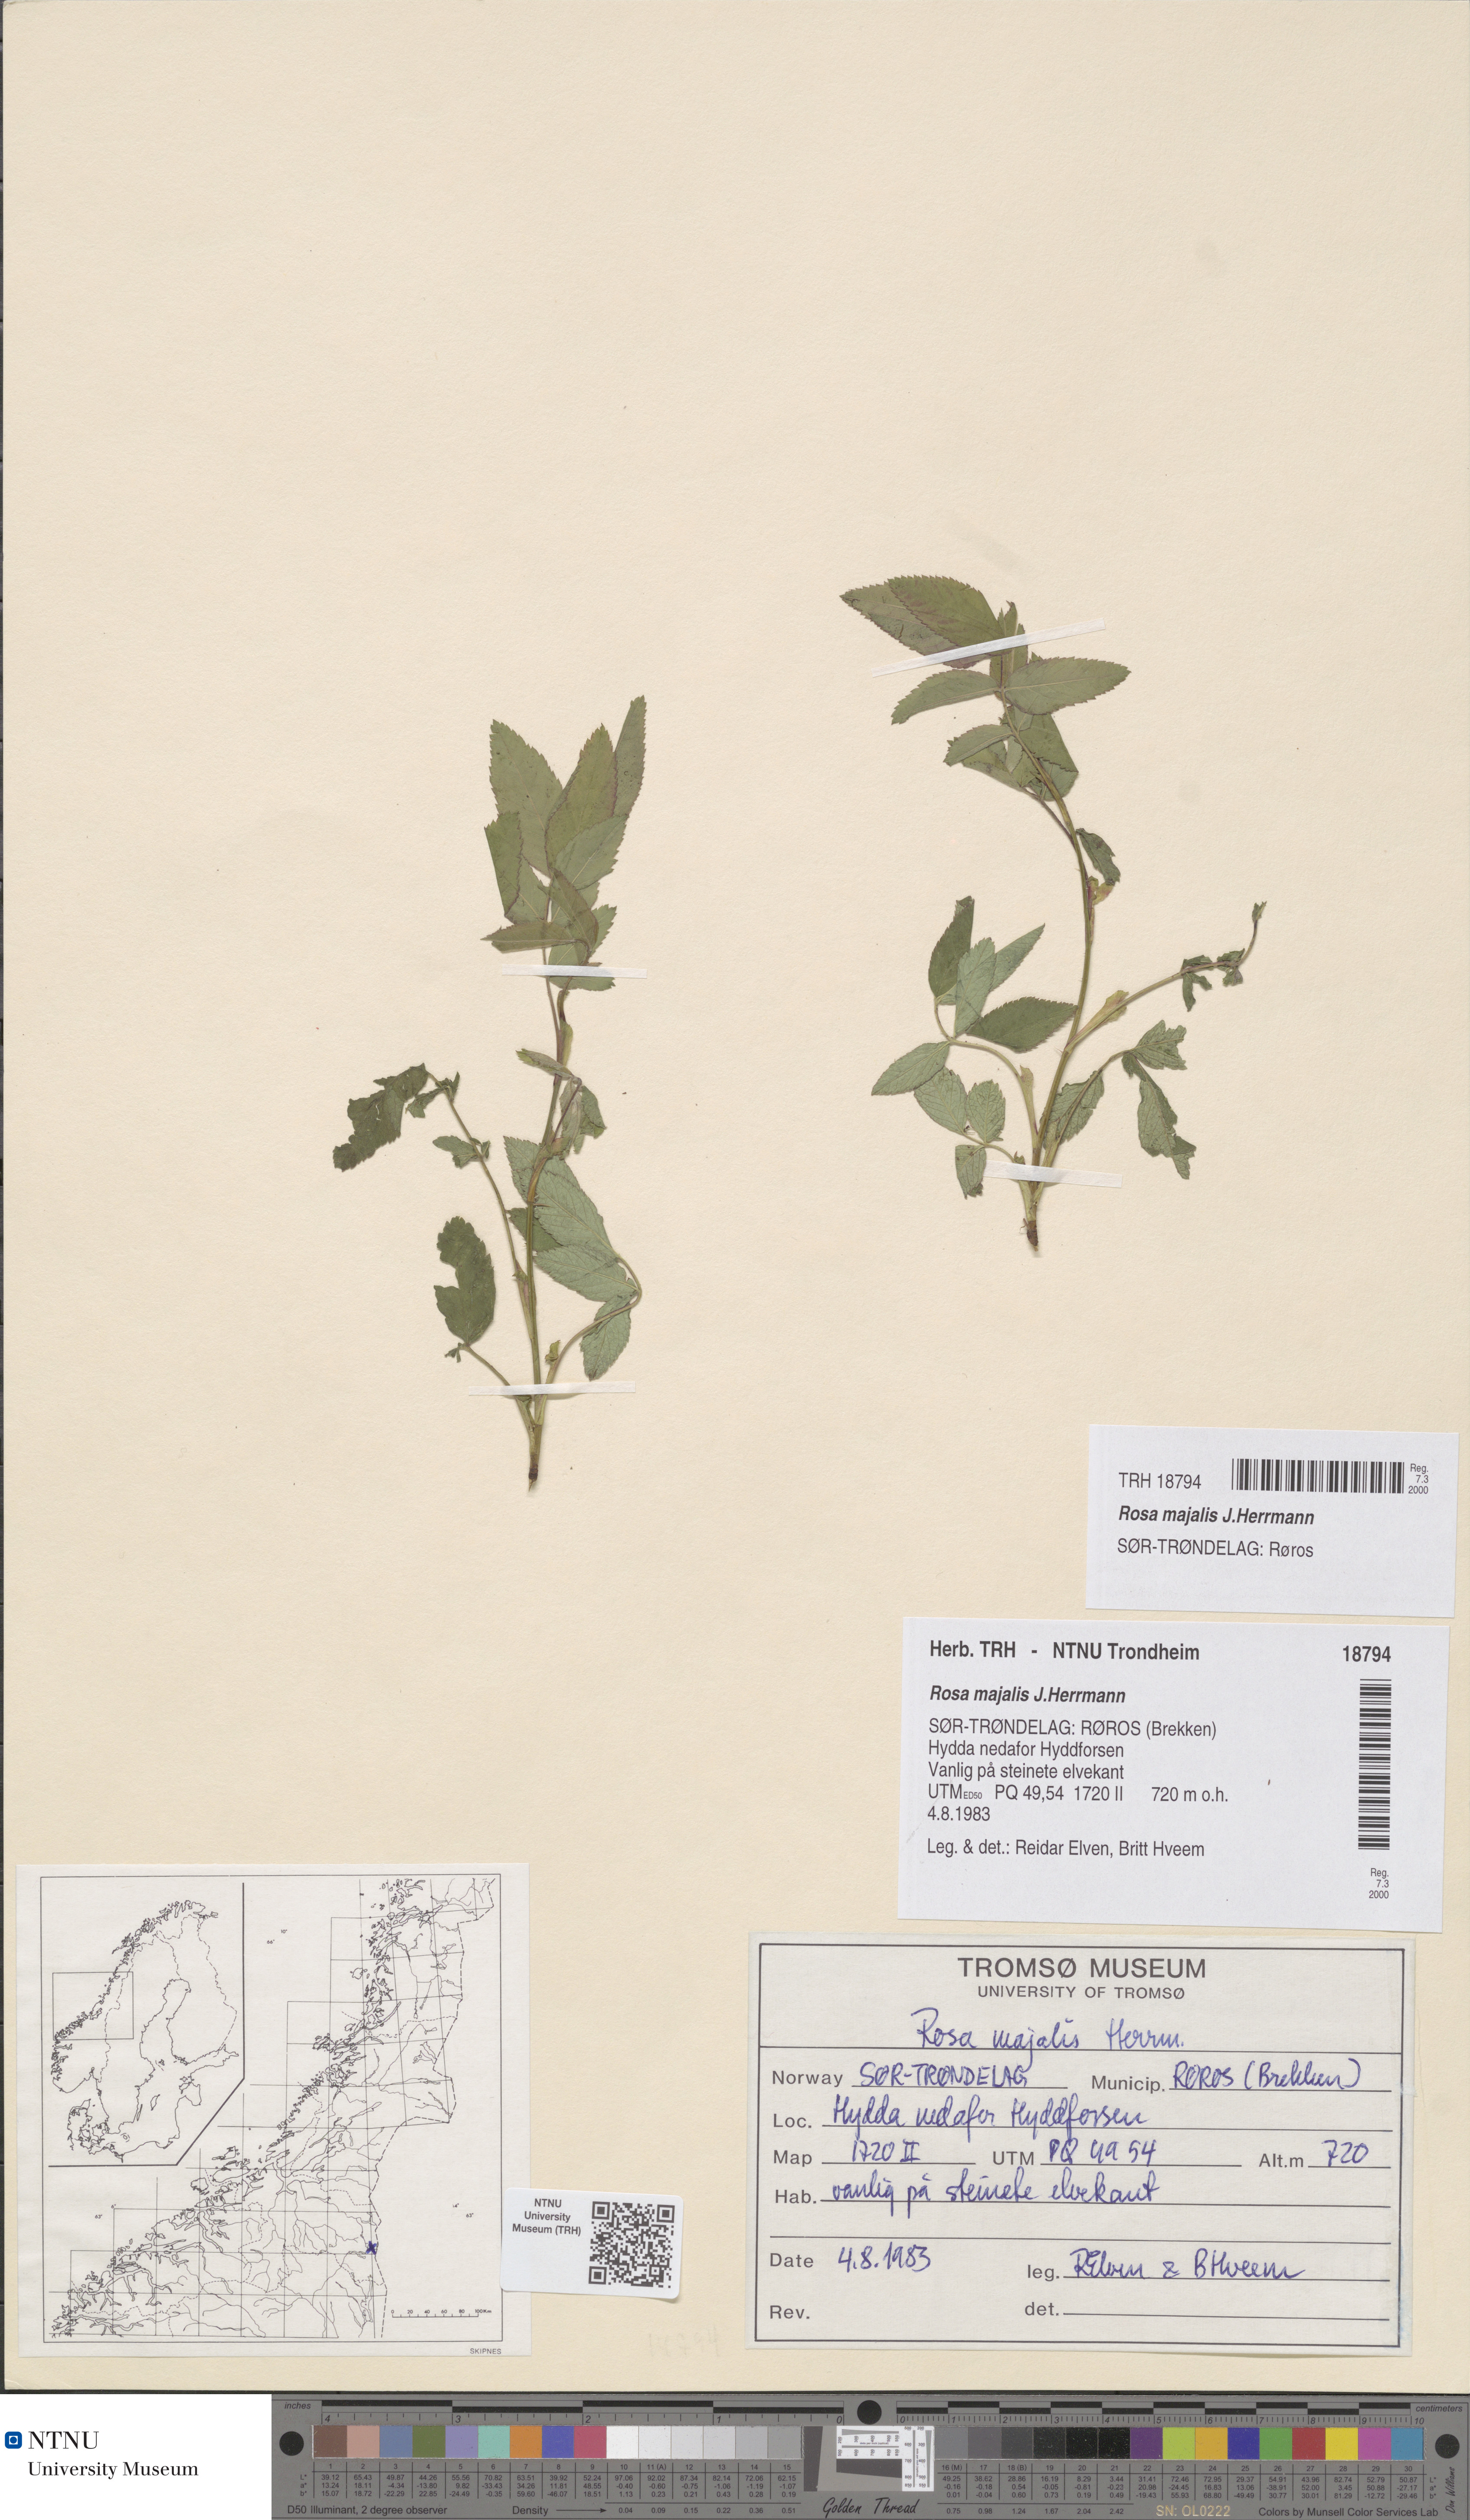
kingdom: Plantae
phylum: Tracheophyta
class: Magnoliopsida
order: Rosales
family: Rosaceae
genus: Rosa
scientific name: Rosa majalis
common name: Cinnamon rose
